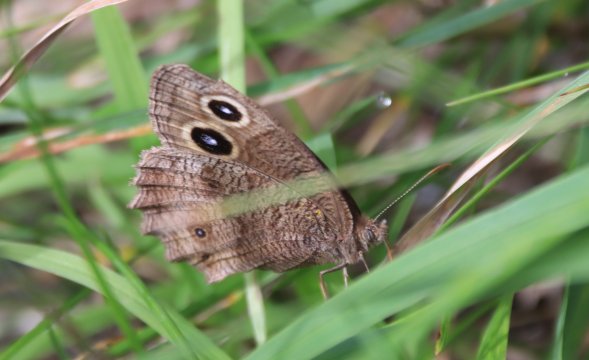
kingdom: Animalia
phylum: Arthropoda
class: Insecta
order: Lepidoptera
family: Nymphalidae
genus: Cercyonis
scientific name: Cercyonis pegala
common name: Common Wood-Nymph
